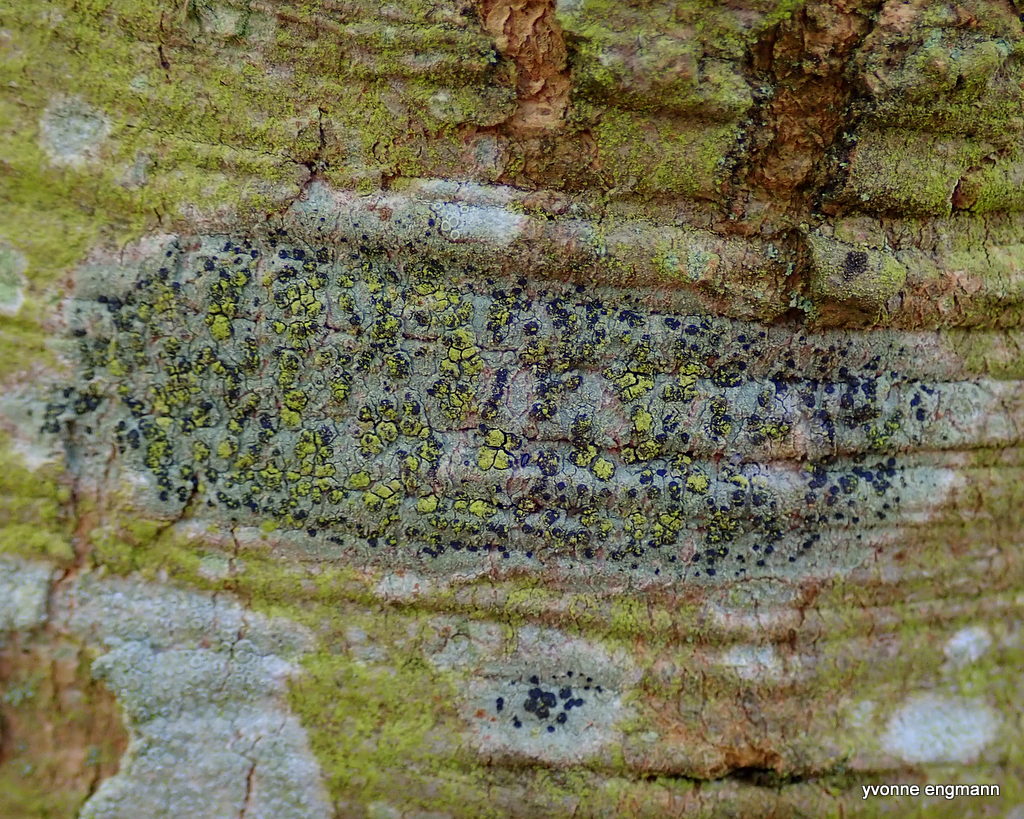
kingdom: Fungi
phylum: Ascomycota
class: Lecanoromycetes
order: Lecanorales
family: Lecanoraceae
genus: Lecidella
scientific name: Lecidella elaeochroma
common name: grågrøn skivelav
